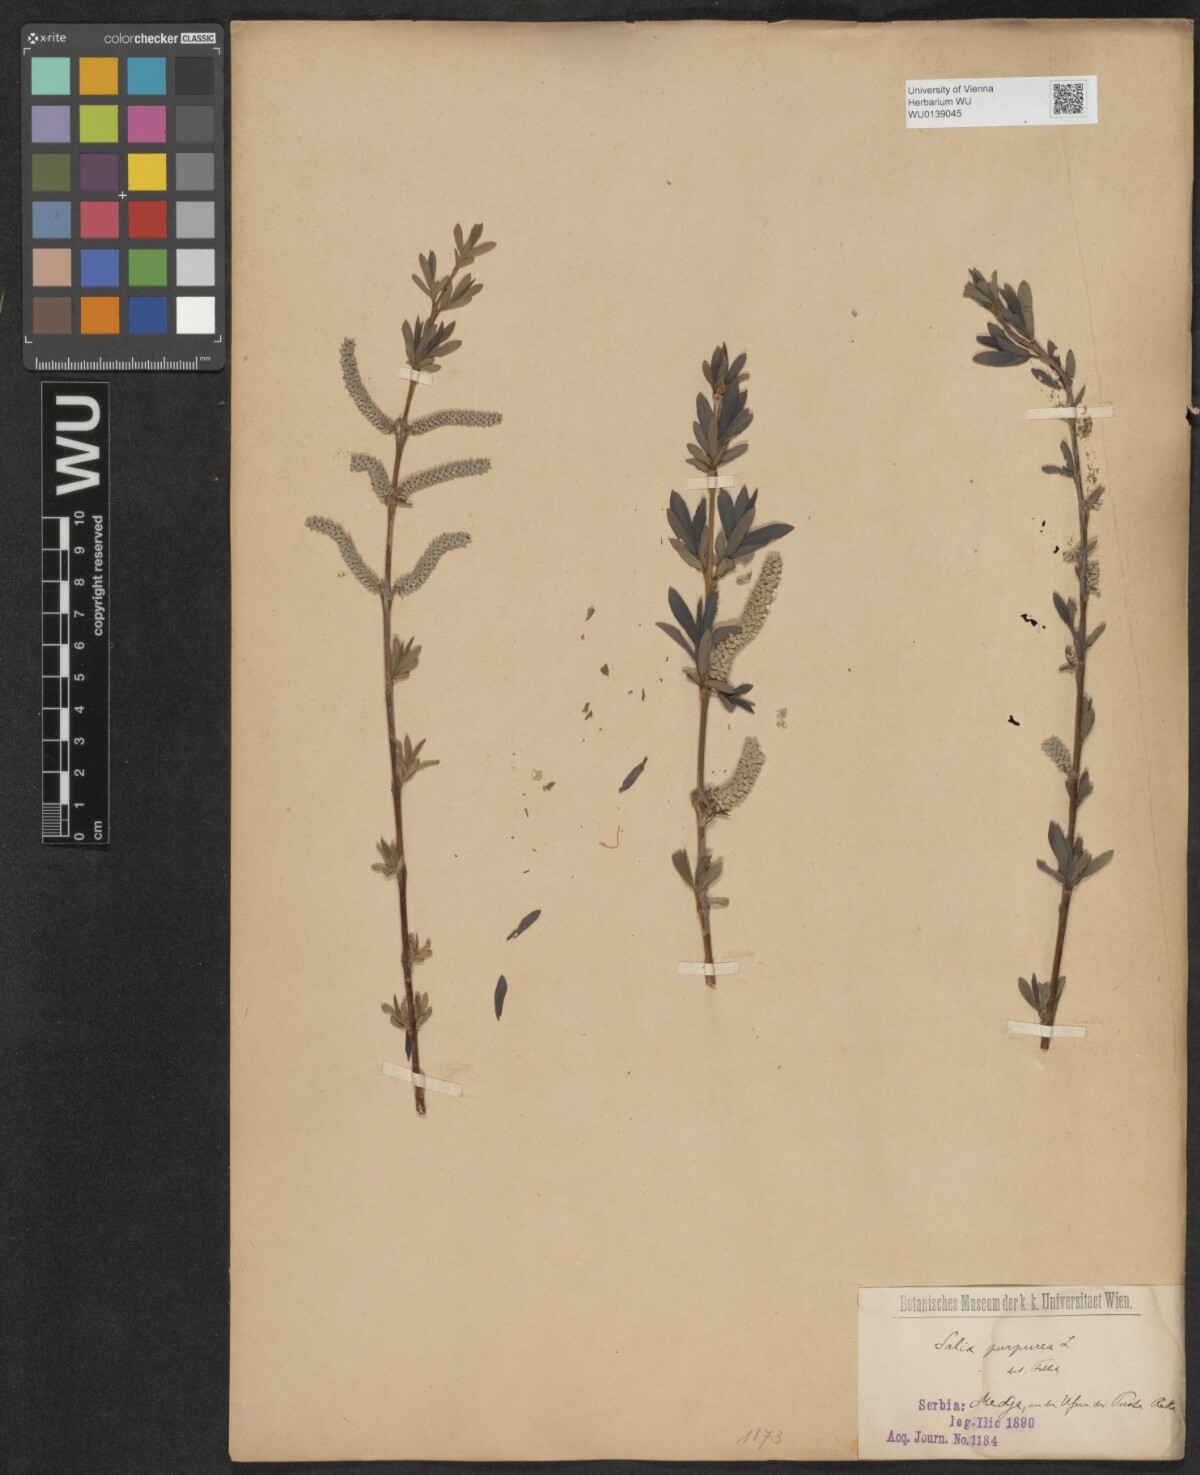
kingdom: Plantae
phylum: Tracheophyta
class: Magnoliopsida
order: Malpighiales
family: Salicaceae
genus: Salix
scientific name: Salix purpurea
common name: Purple willow
